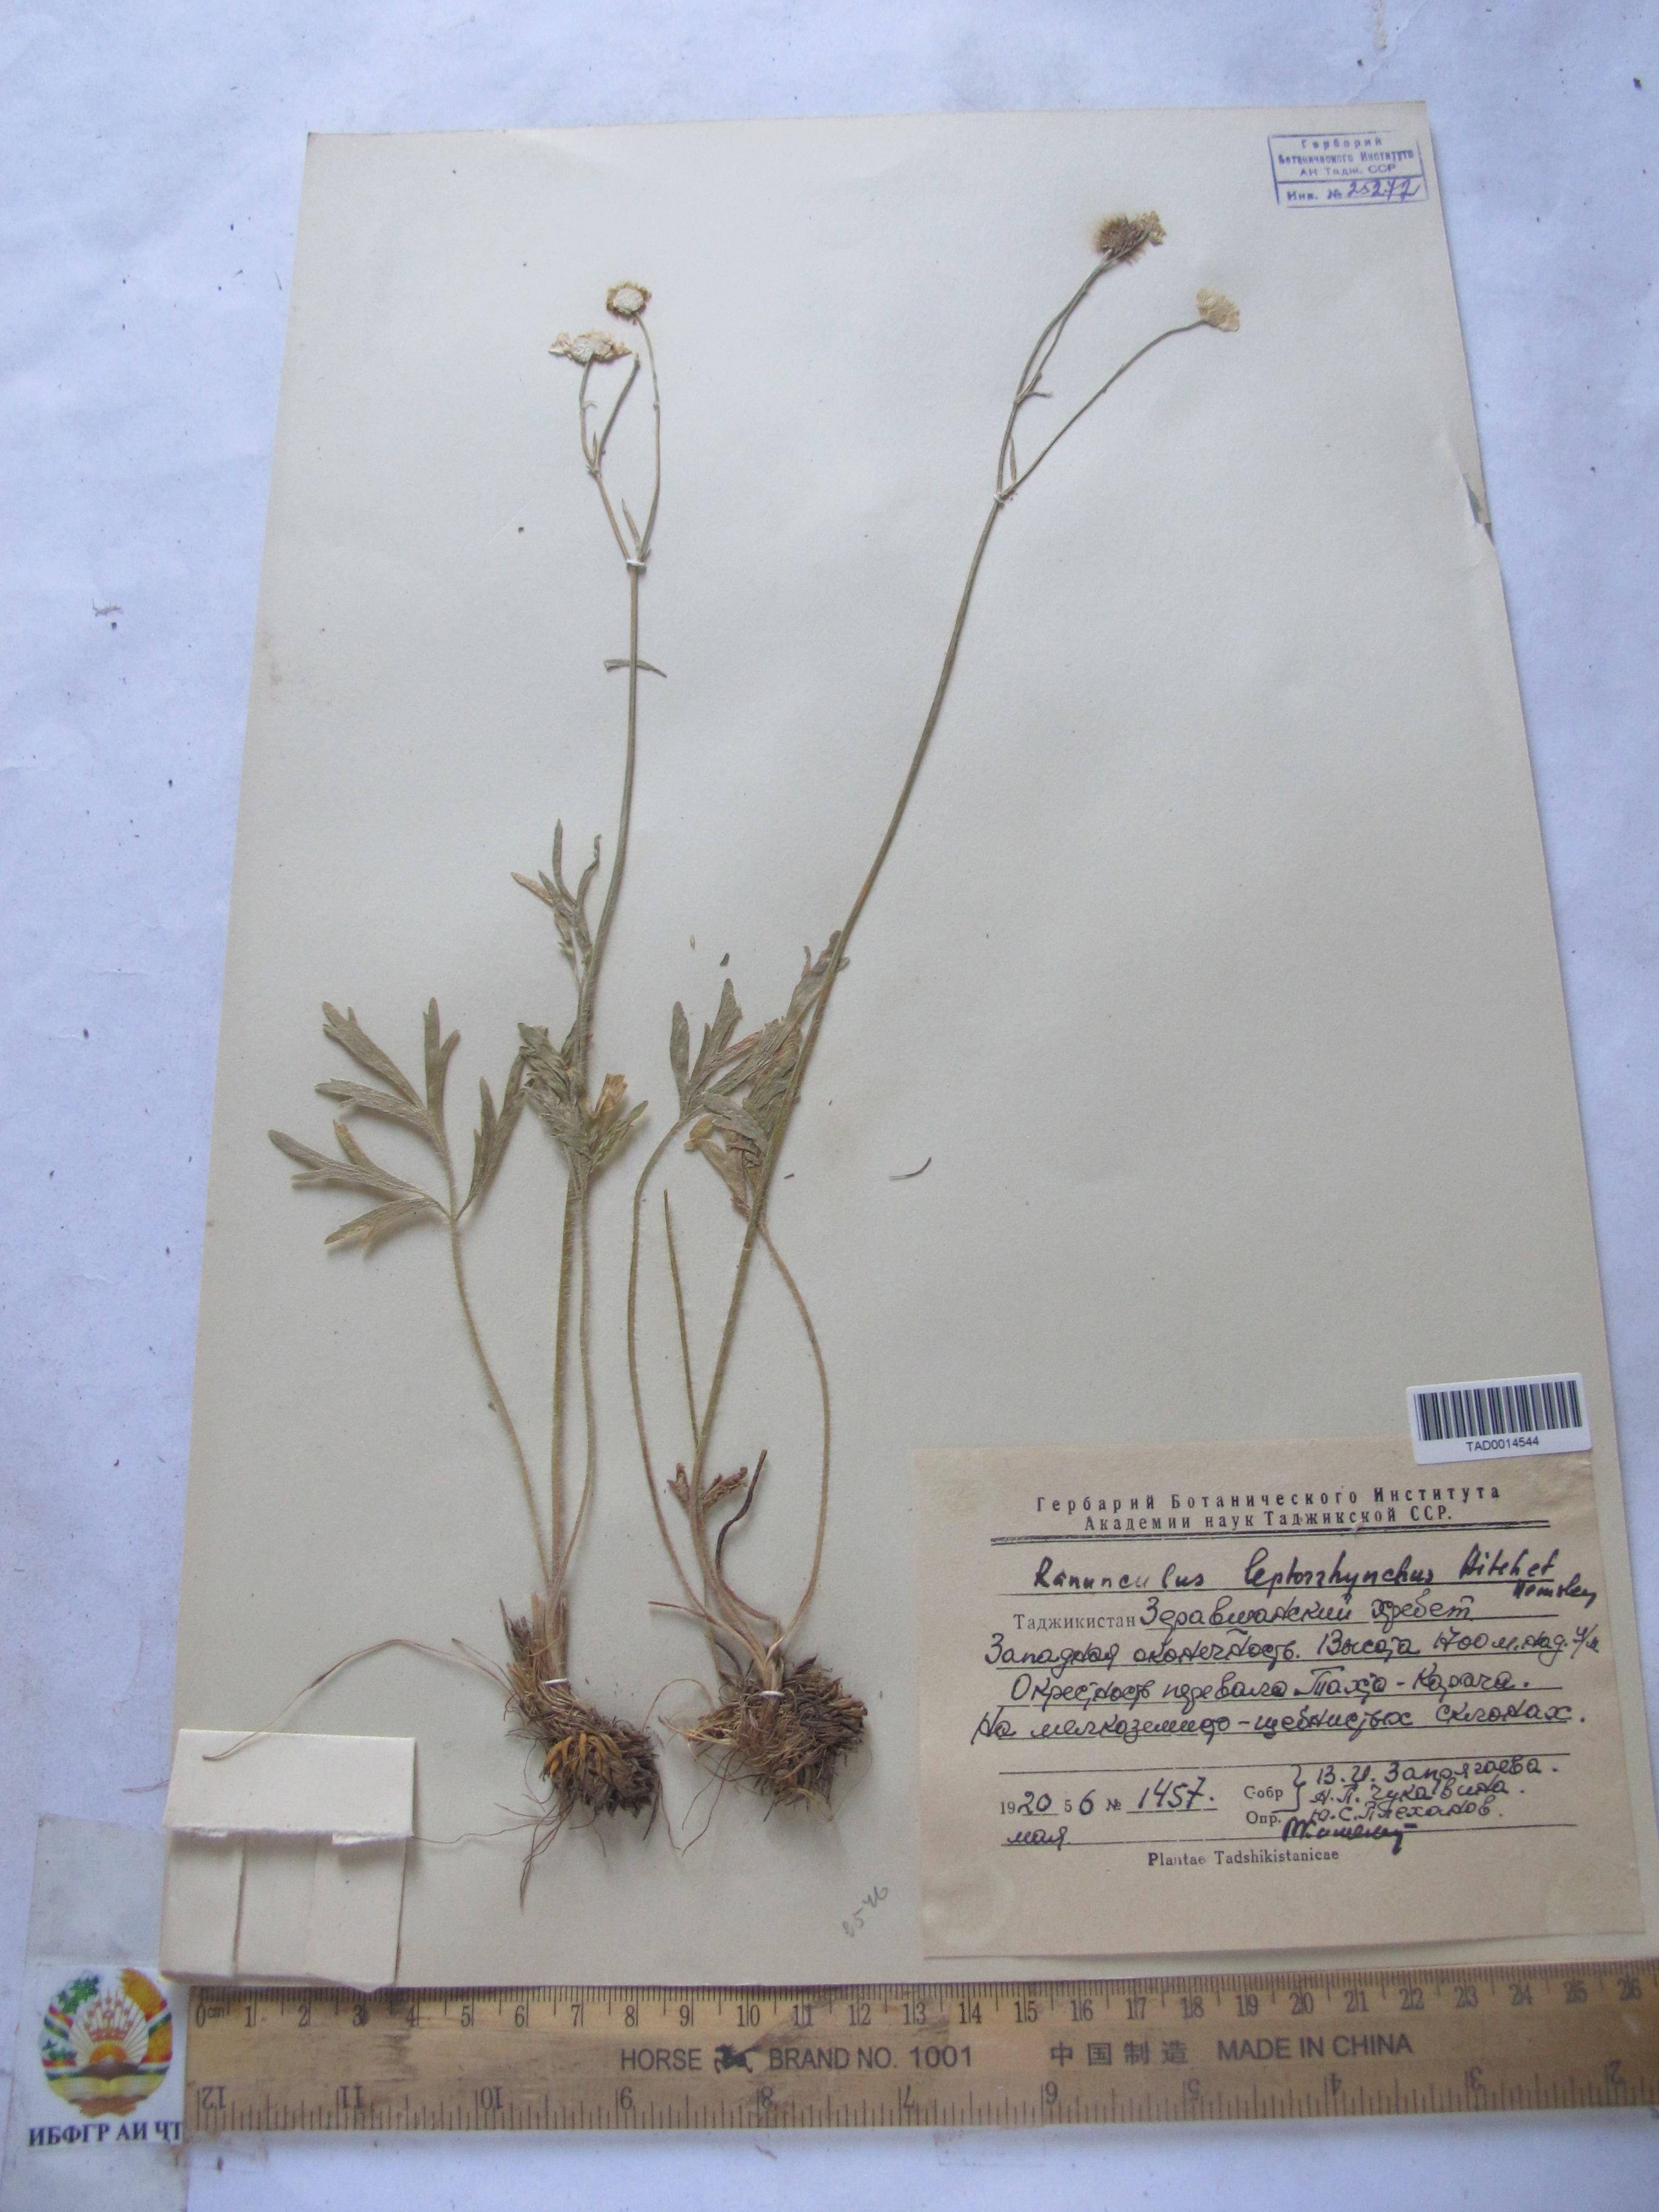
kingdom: Plantae
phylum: Tracheophyta
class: Magnoliopsida
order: Ranunculales
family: Ranunculaceae
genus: Ranunculus
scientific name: Ranunculus leptorrhynchus
